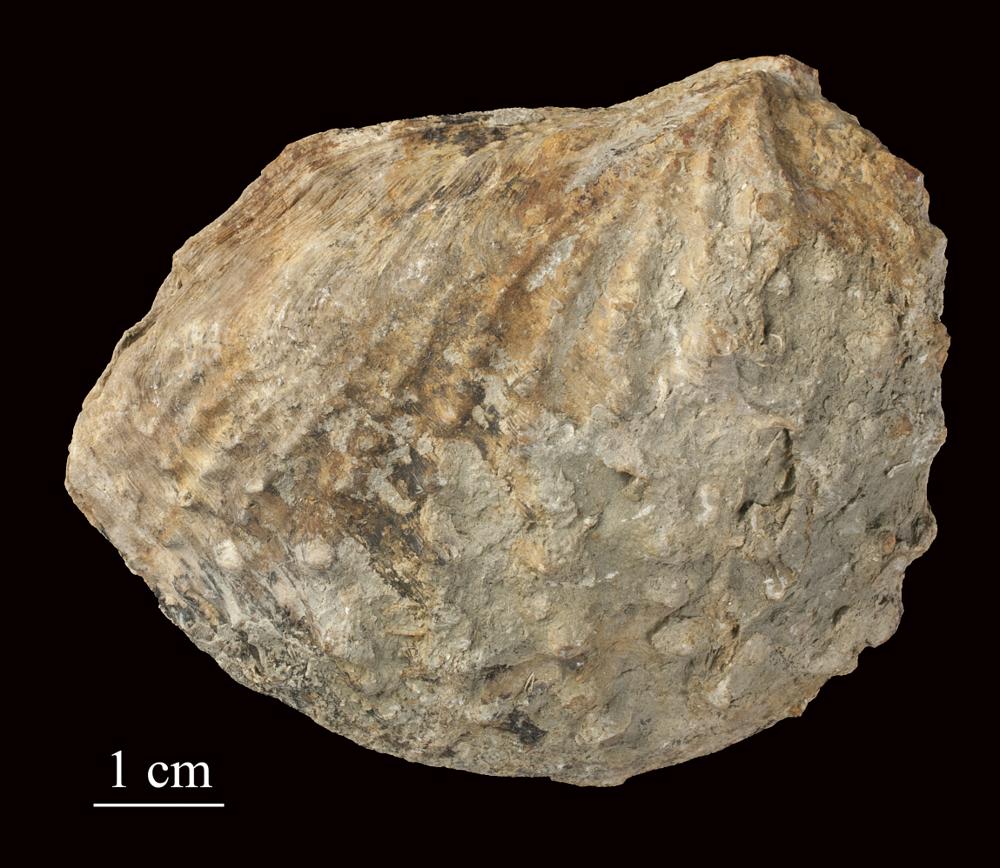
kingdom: Animalia
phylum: Mollusca
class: Bivalvia
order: Trigoniida
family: Myophorellidae
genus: Myophorella
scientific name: Myophorella lusitanica
